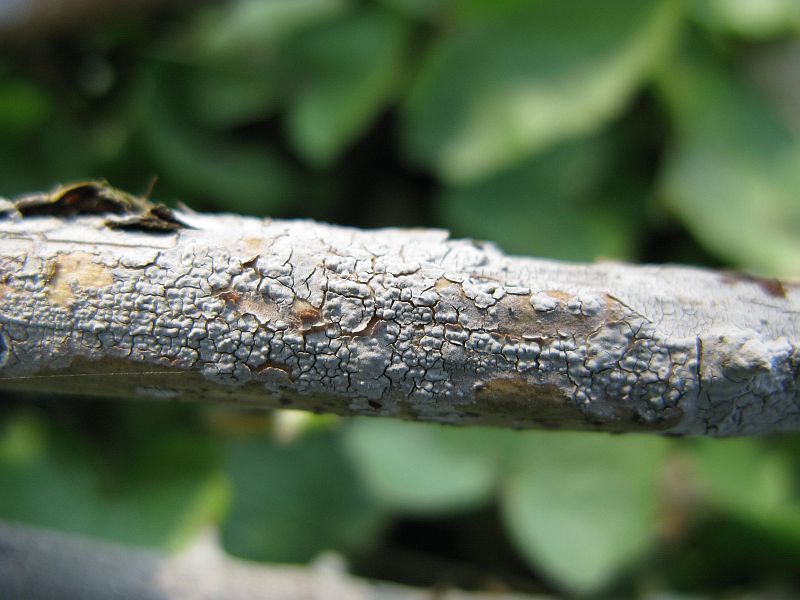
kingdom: Fungi
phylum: Basidiomycota
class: Agaricomycetes
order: Russulales
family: Peniophoraceae
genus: Peniophora
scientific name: Peniophora lycii
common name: grynet voksskind
